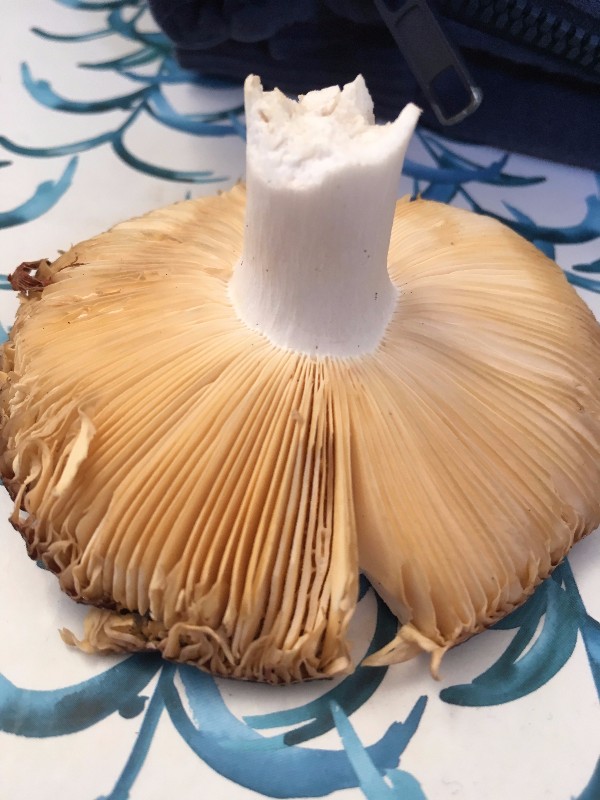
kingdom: Fungi
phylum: Basidiomycota
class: Agaricomycetes
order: Russulales
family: Russulaceae
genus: Russula
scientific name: Russula integra
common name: mandel-skørhat
